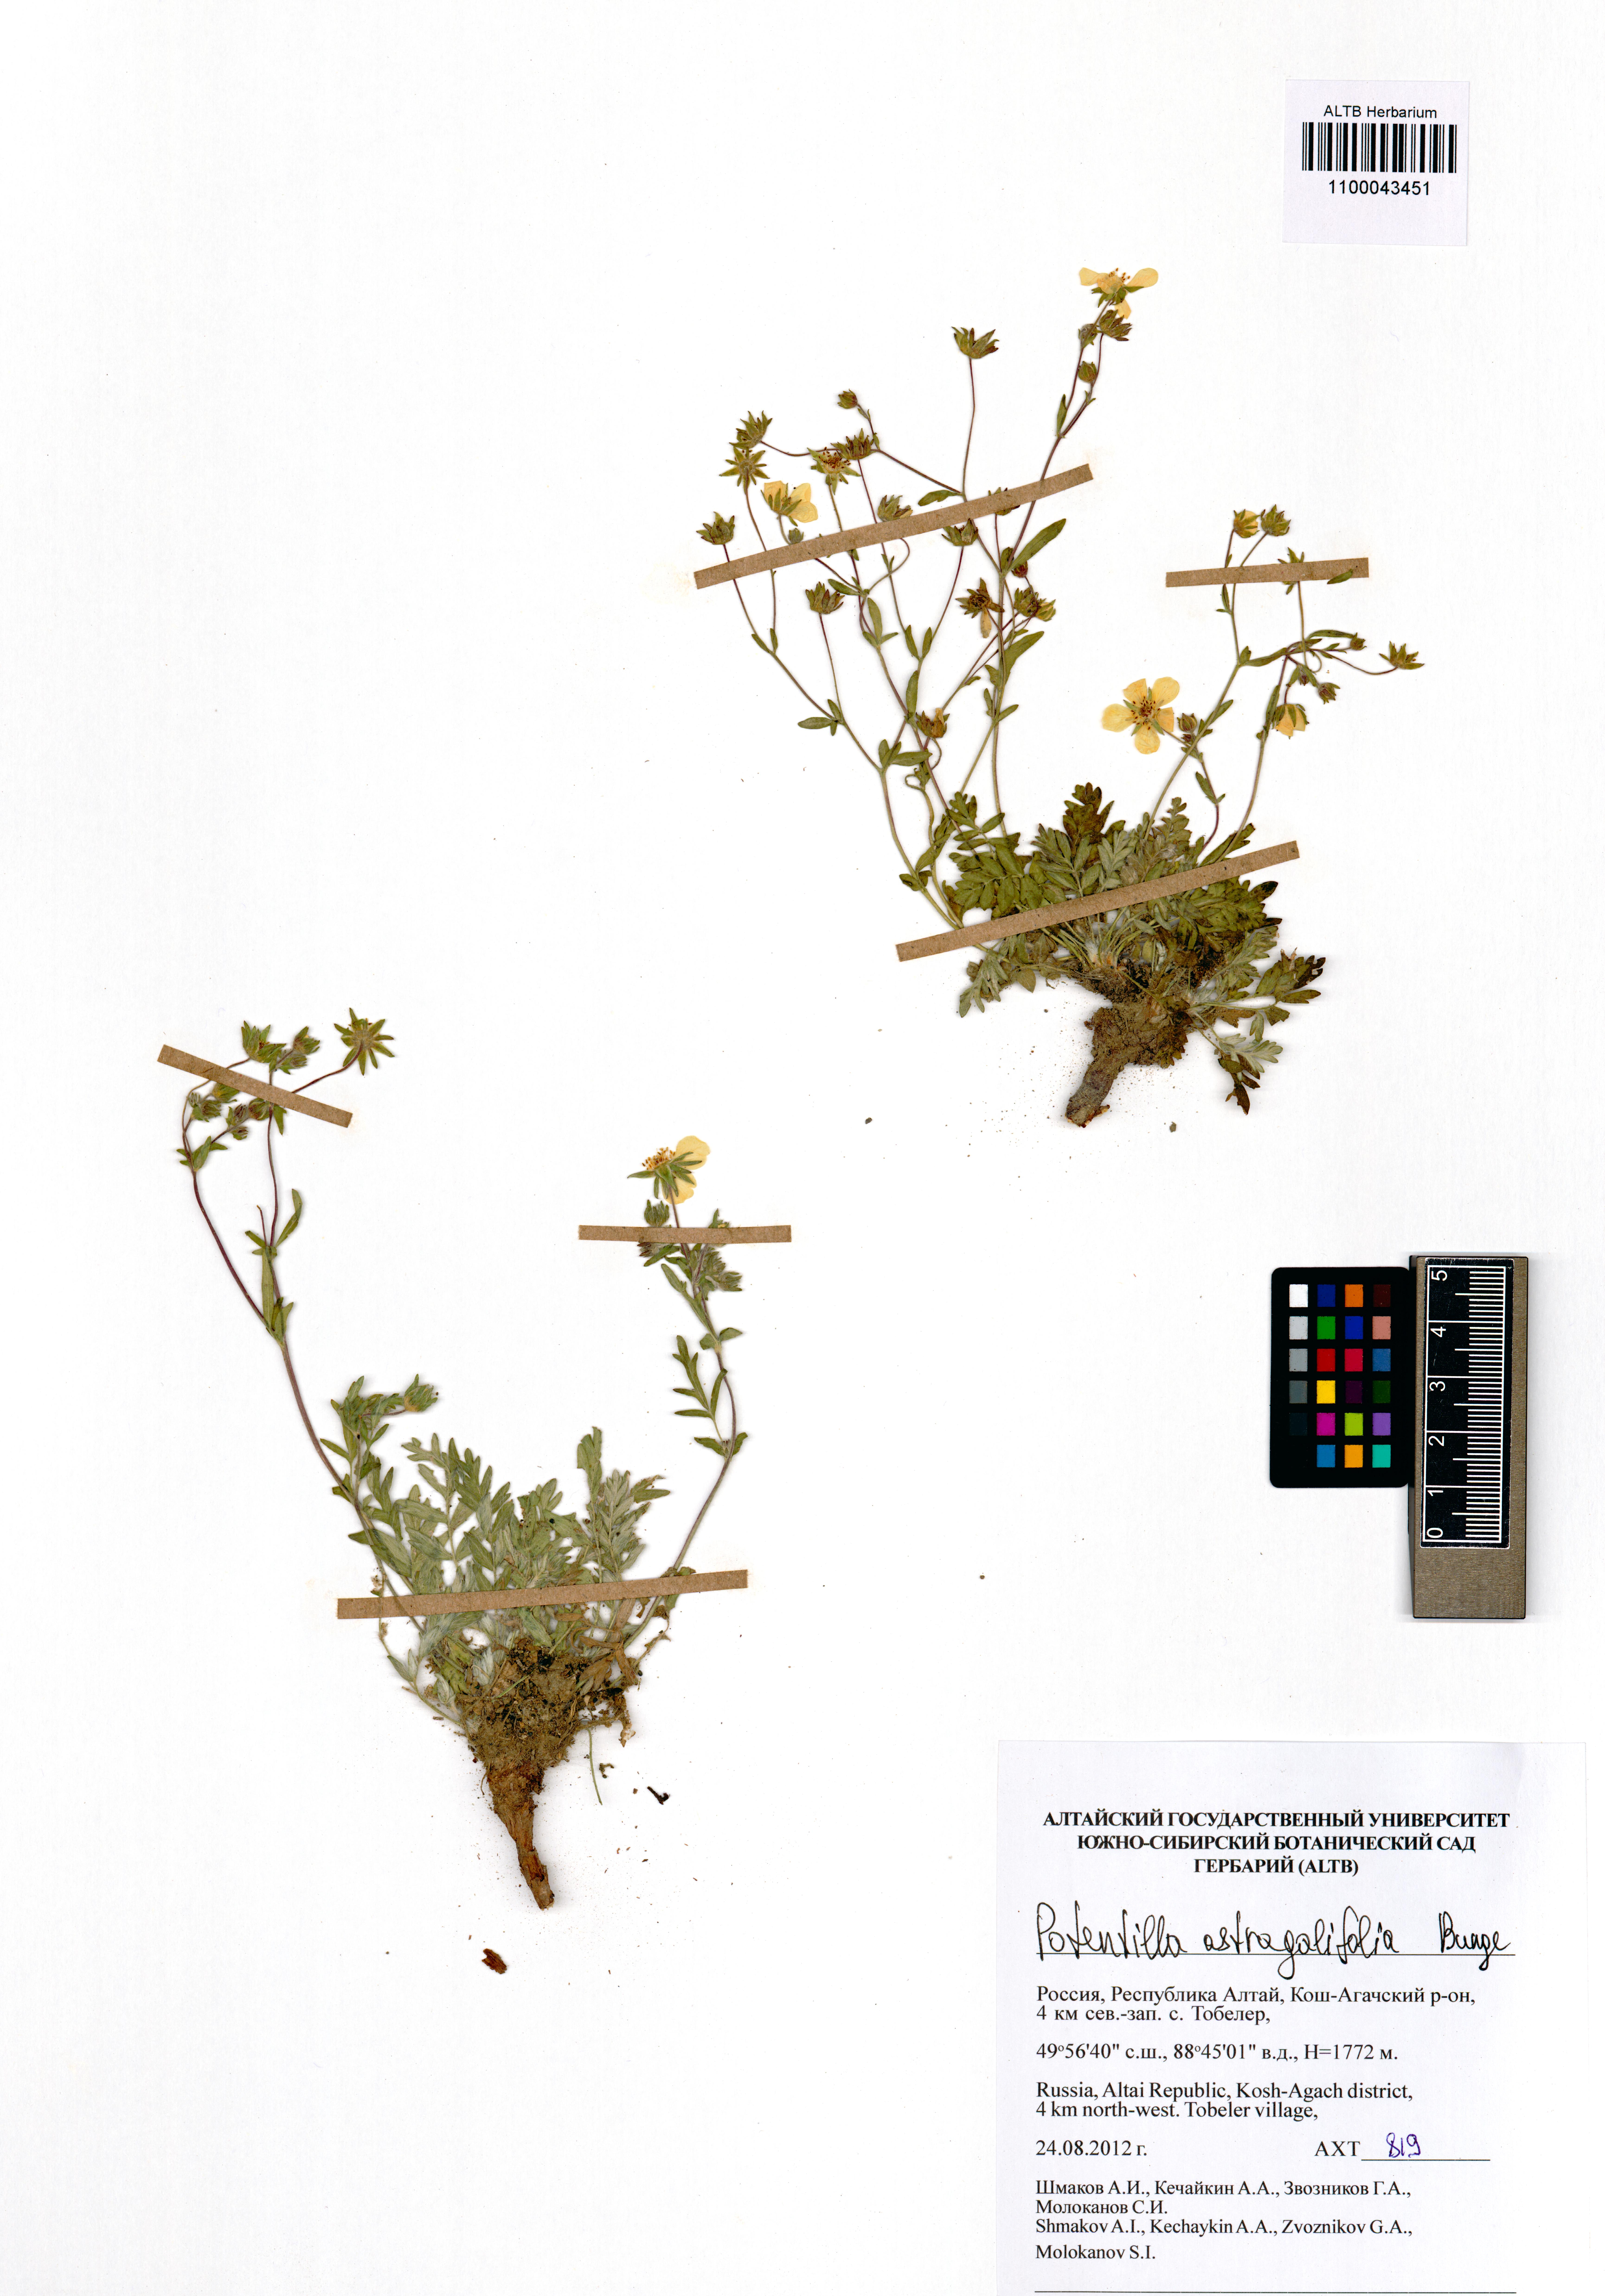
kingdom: Plantae
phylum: Tracheophyta
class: Magnoliopsida
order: Rosales
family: Rosaceae
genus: Potentilla
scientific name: Potentilla astragalifolia
